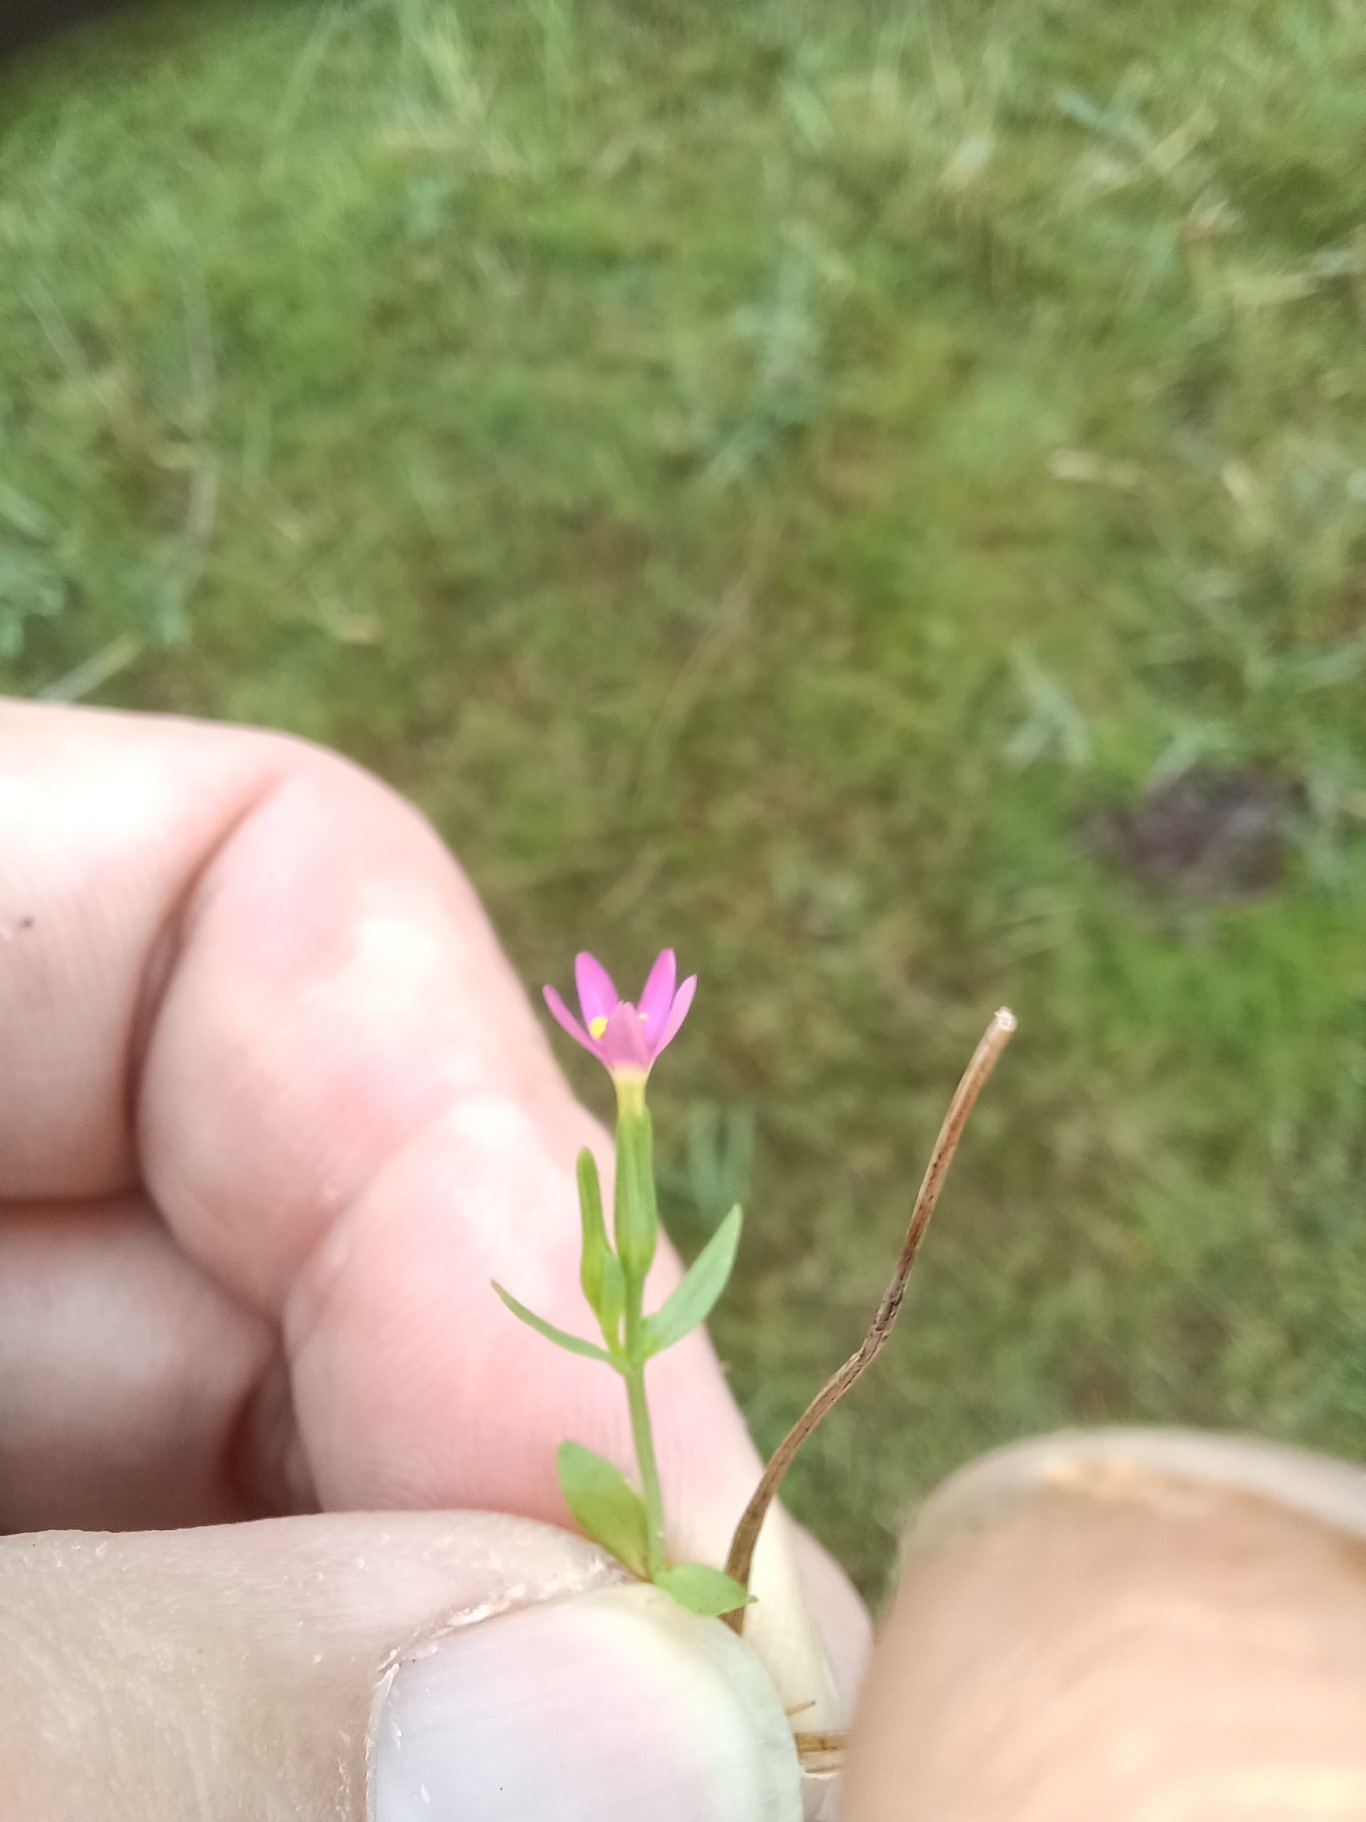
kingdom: Plantae
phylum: Tracheophyta
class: Magnoliopsida
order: Gentianales
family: Gentianaceae
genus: Centaurium
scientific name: Centaurium pulchellum
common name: Liden tusindgylden
